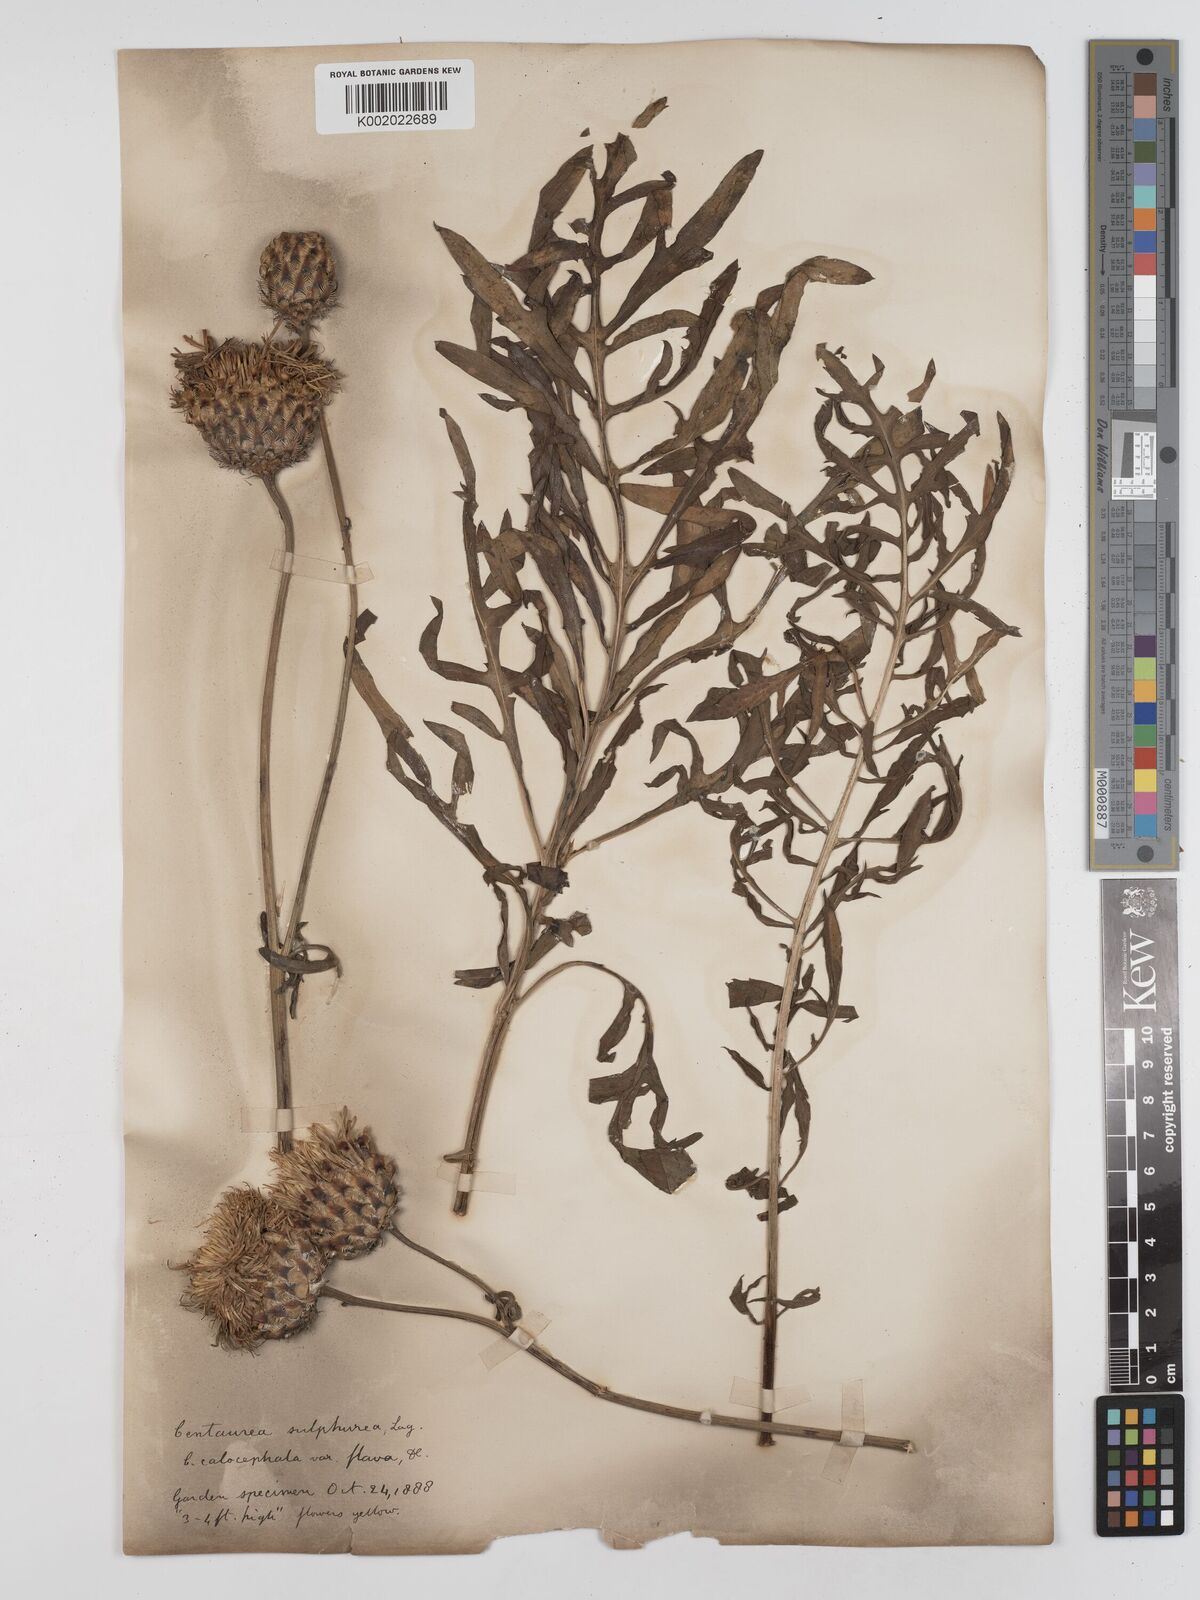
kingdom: Plantae
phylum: Tracheophyta
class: Magnoliopsida
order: Asterales
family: Asteraceae
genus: Centaurea
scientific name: Centaurea calocephala
